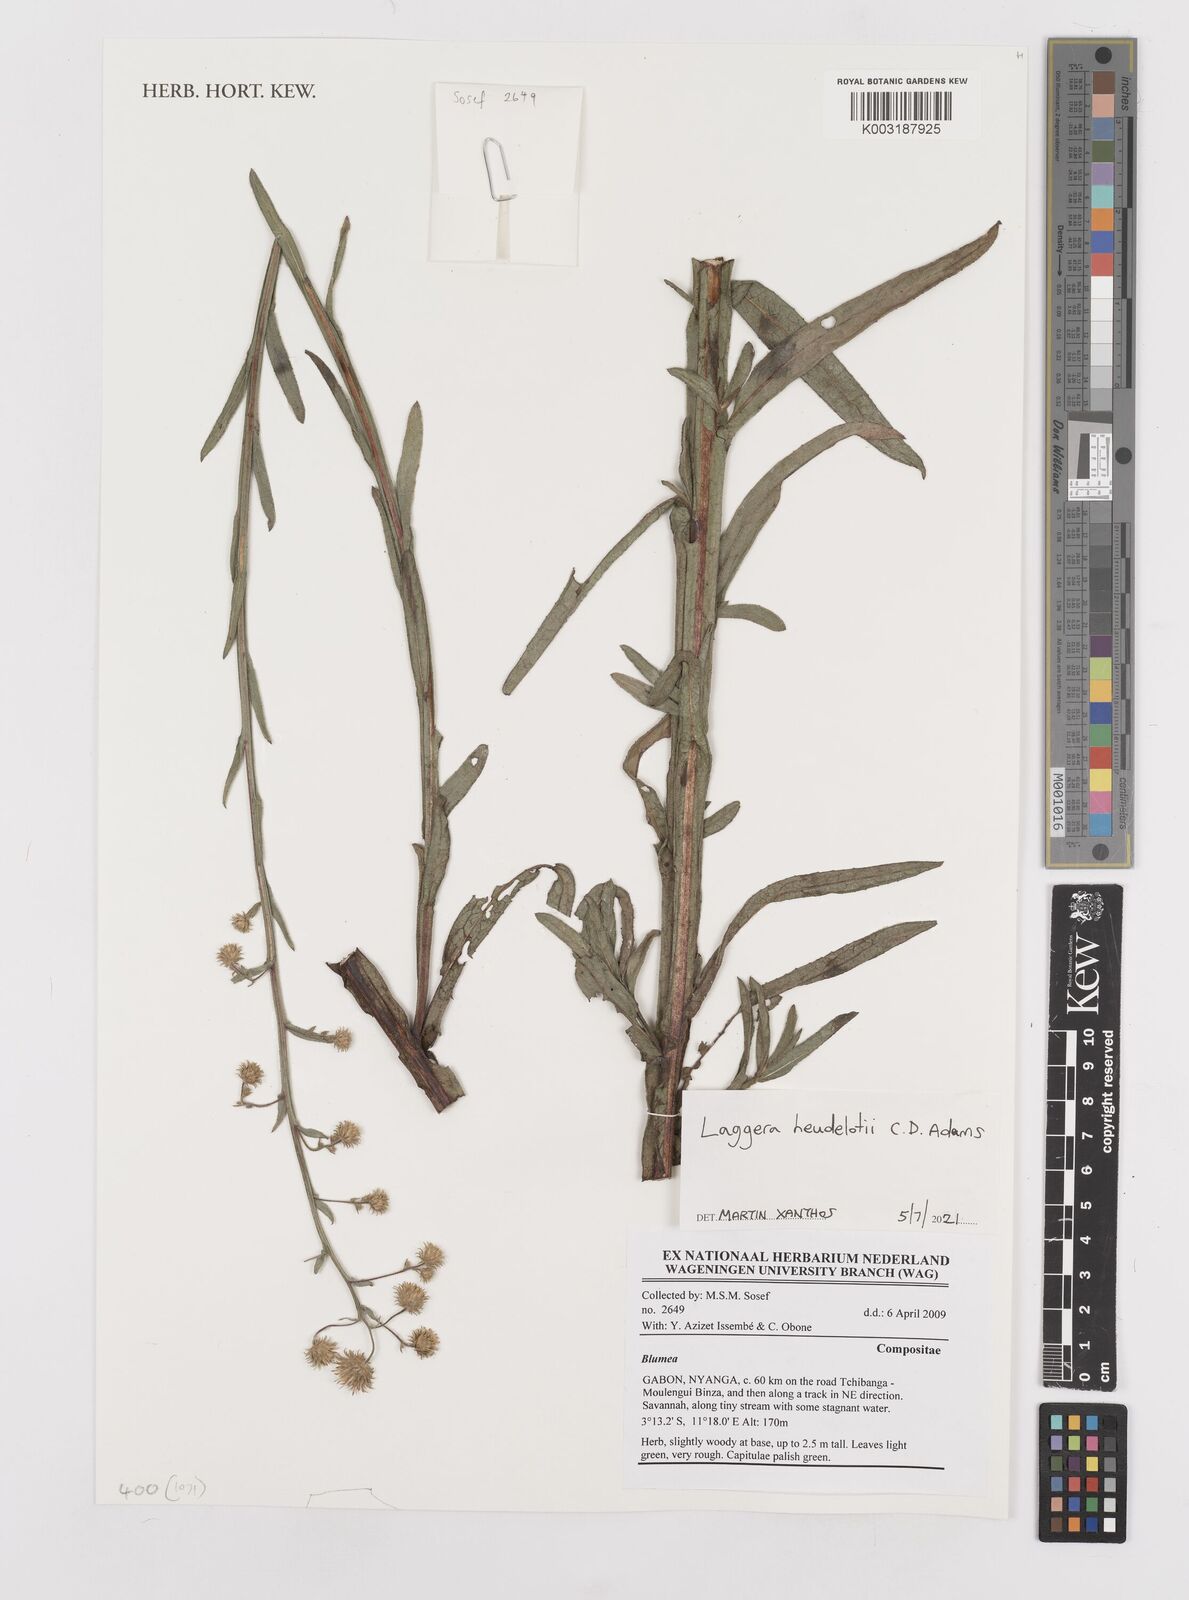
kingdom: Plantae
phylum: Tracheophyta
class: Magnoliopsida
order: Asterales
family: Asteraceae
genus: Laggera
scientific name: Laggera heudelotii
